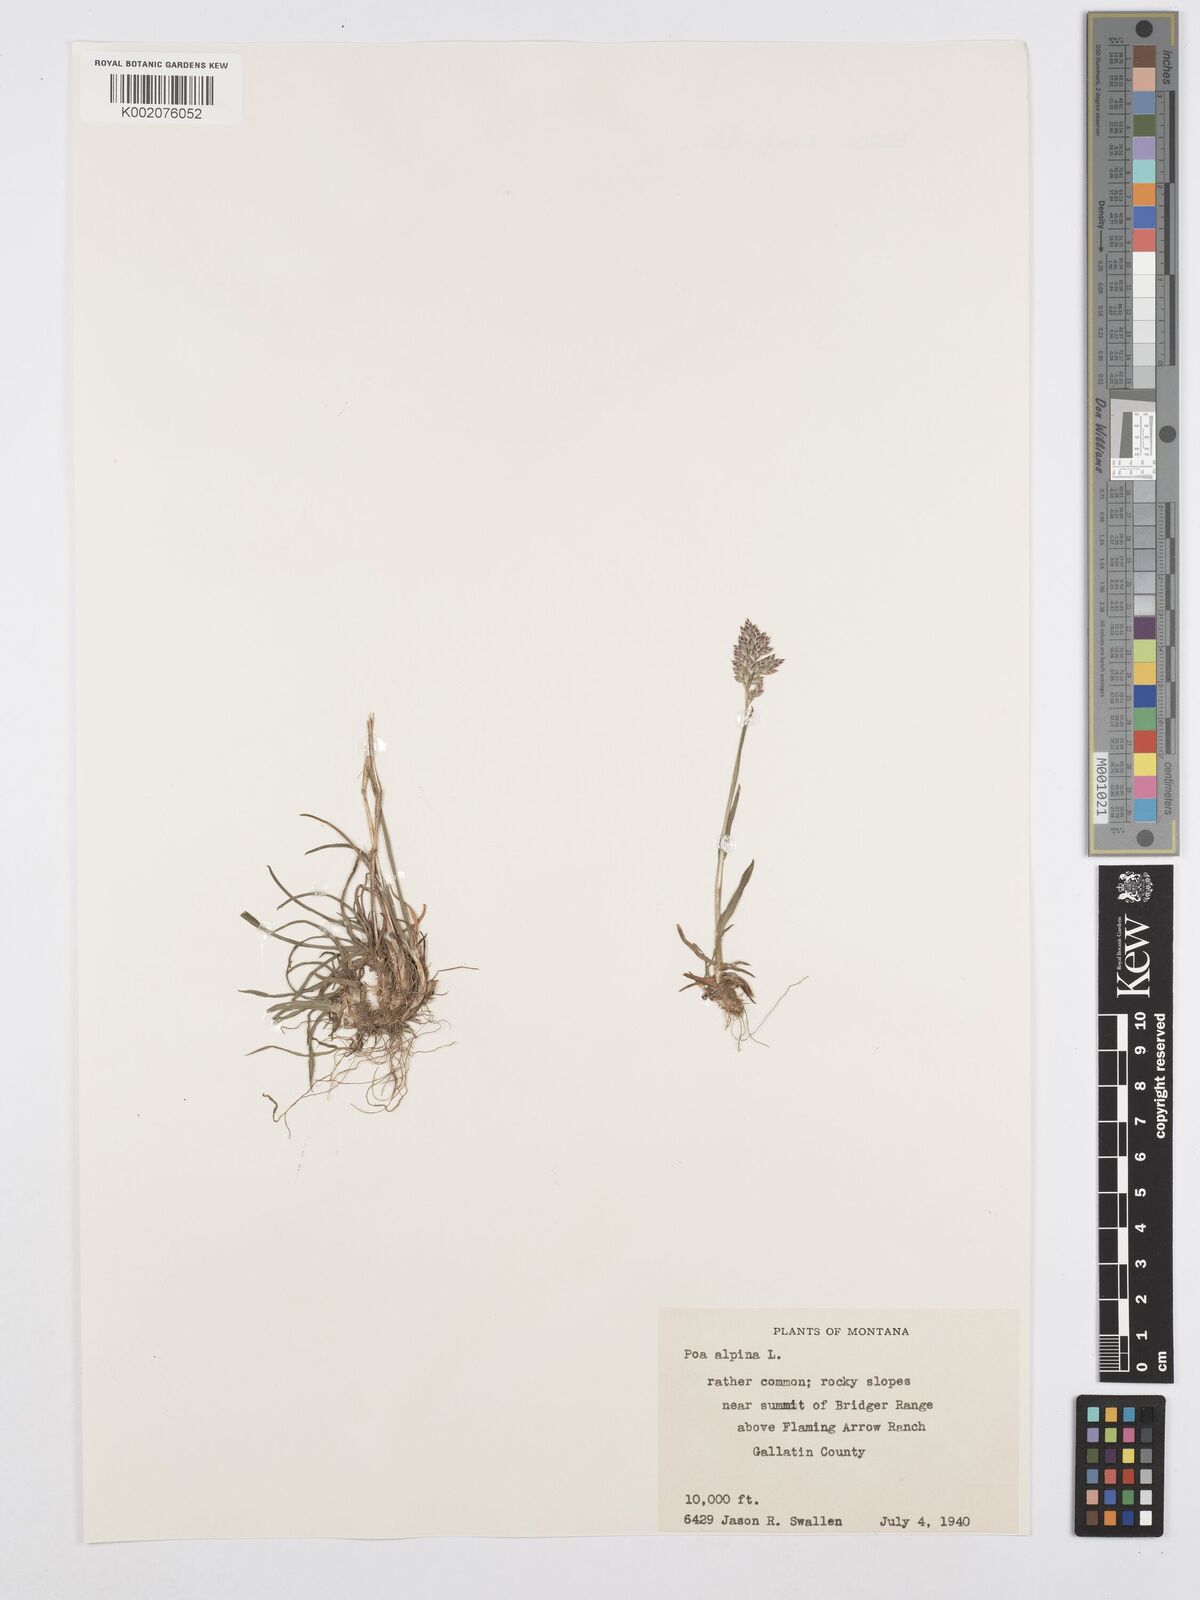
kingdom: Plantae
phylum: Tracheophyta
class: Liliopsida
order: Poales
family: Poaceae
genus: Poa
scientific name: Poa alpina
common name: Alpine bluegrass
